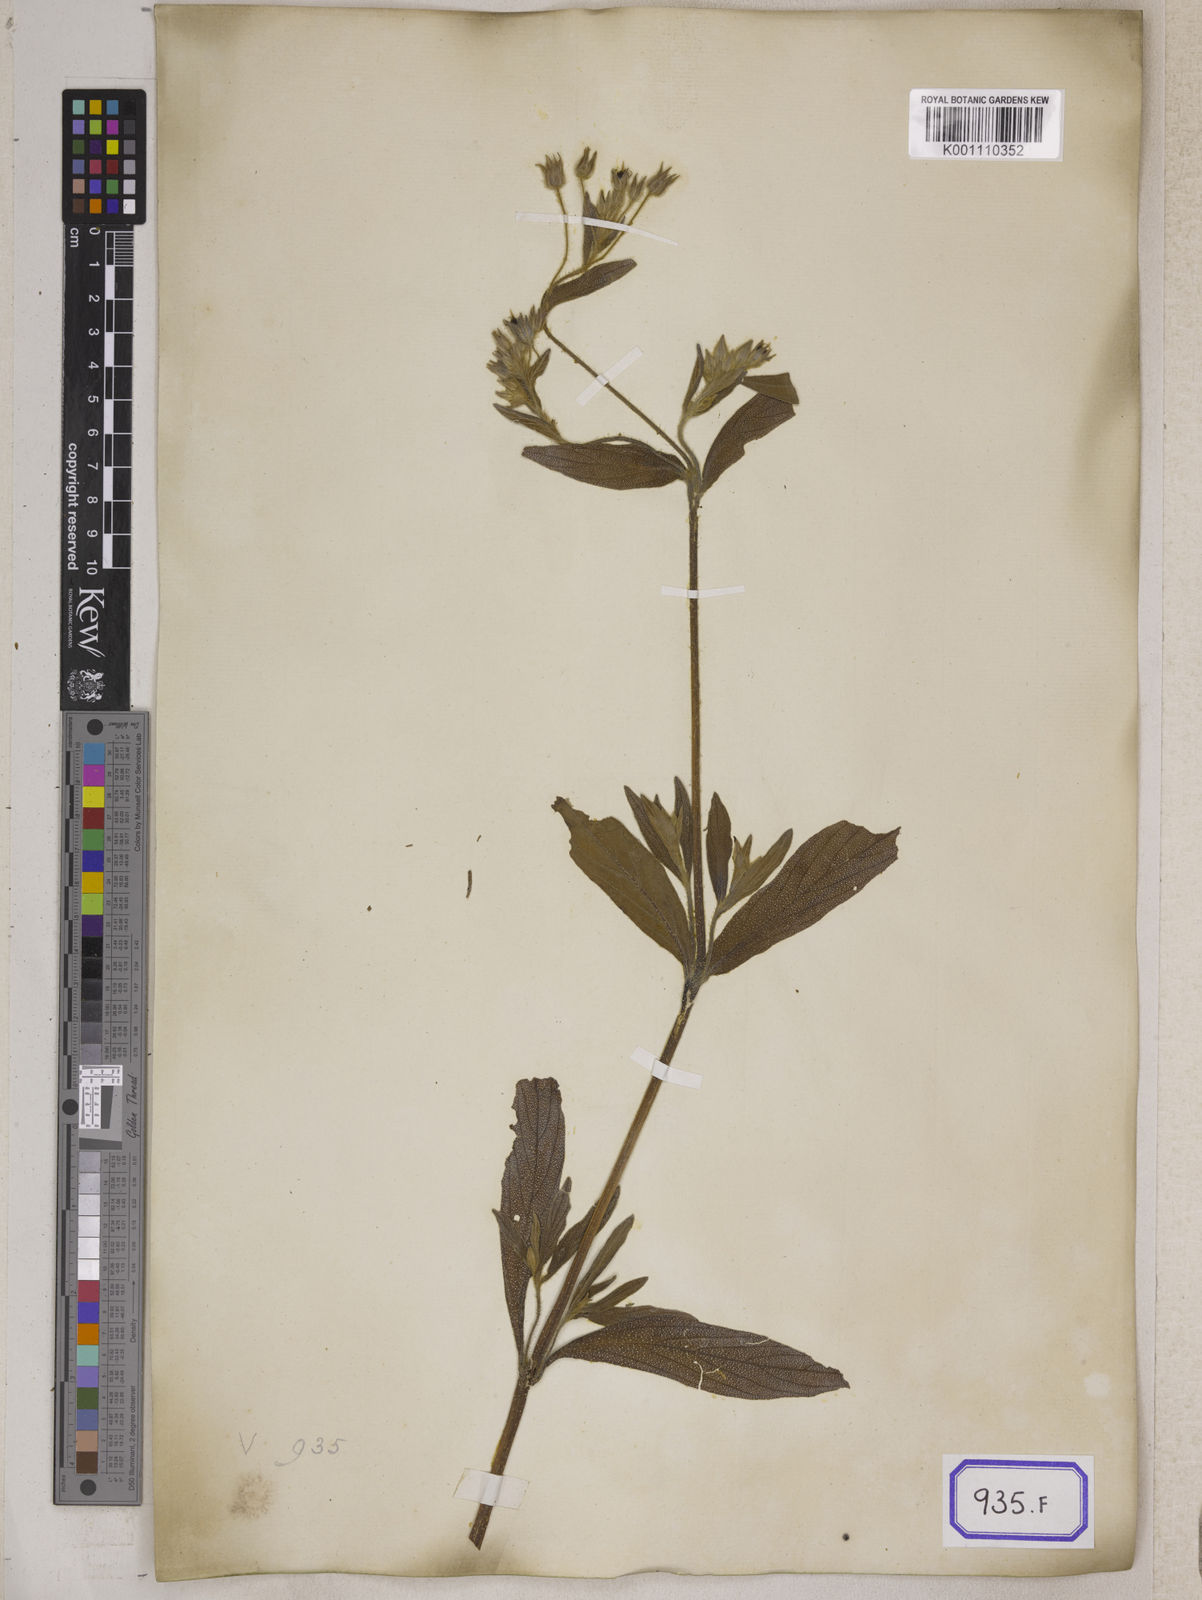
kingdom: Plantae
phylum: Tracheophyta
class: Magnoliopsida
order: Boraginales
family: Boraginaceae
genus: Trichodesma
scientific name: Trichodesma zeylanicum
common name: Camelbush
